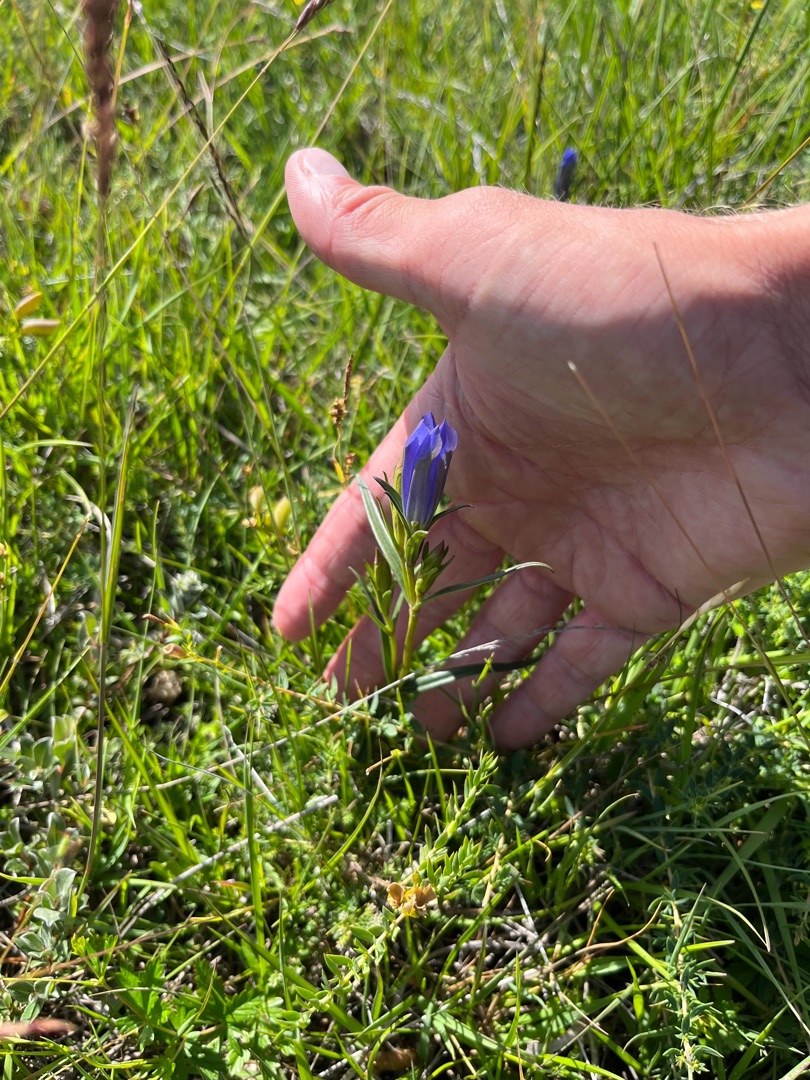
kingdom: Plantae
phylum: Tracheophyta
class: Magnoliopsida
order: Gentianales
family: Gentianaceae
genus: Gentiana
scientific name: Gentiana pneumonanthe
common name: Klokke-ensian
